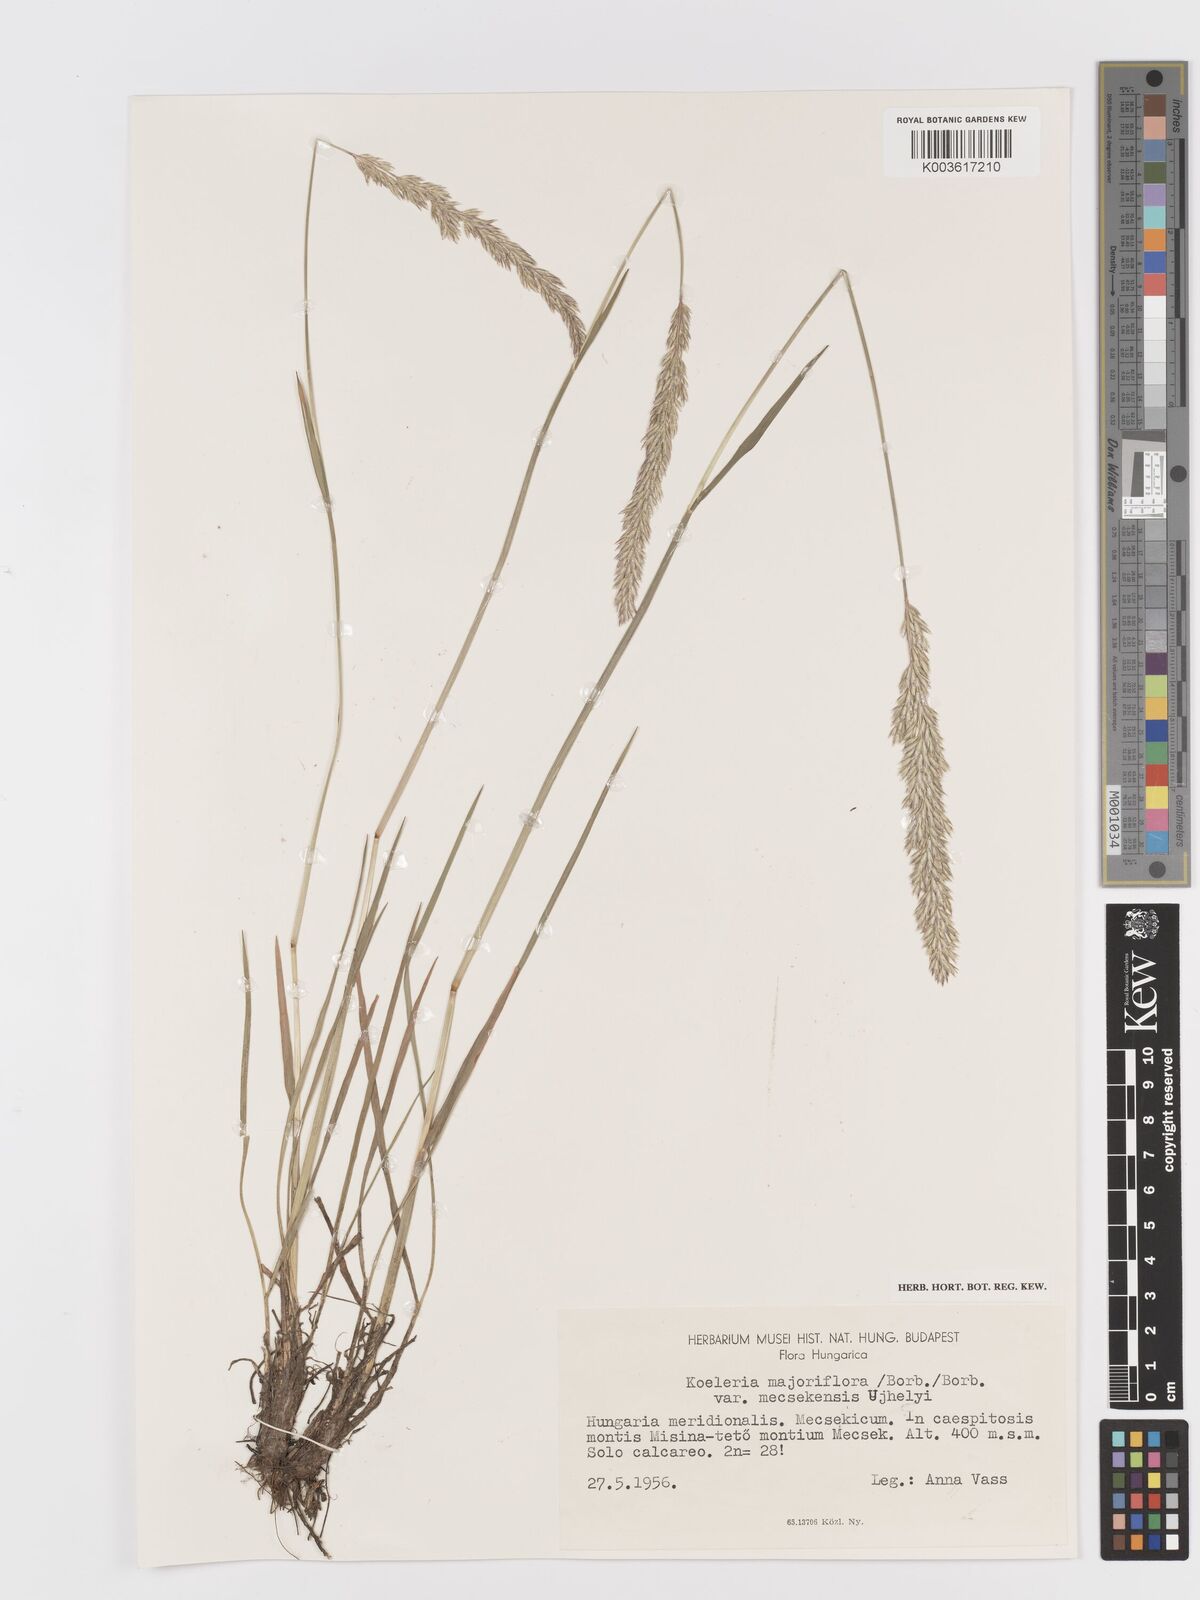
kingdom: Plantae
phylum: Tracheophyta
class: Liliopsida
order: Poales
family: Poaceae
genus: Koeleria
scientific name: Koeleria macrantha
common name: Crested hair-grass
